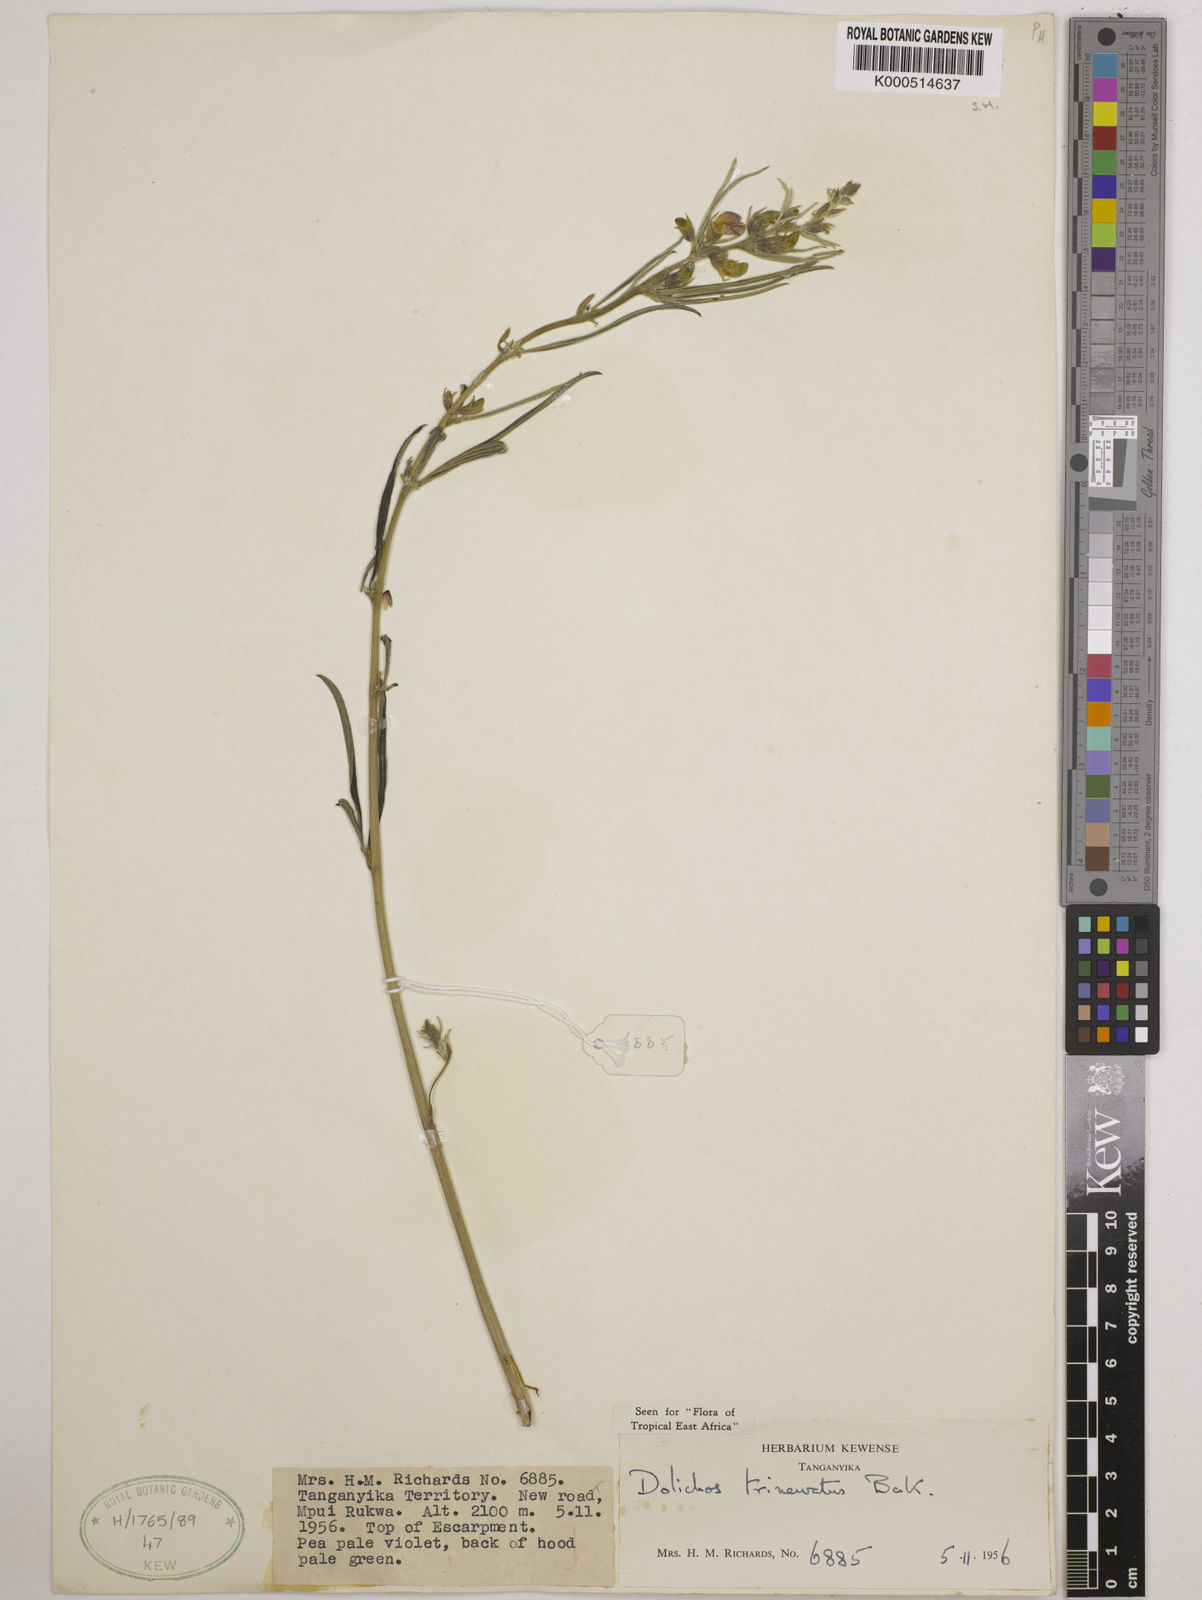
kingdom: Plantae
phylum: Tracheophyta
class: Magnoliopsida
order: Fabales
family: Fabaceae
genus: Dolichos
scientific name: Dolichos trinervatus
